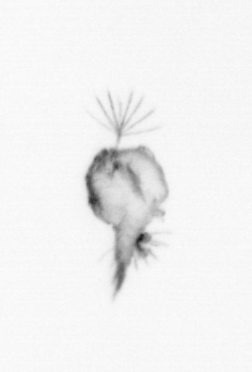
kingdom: Animalia
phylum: Arthropoda
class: Copepoda
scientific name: Copepoda
